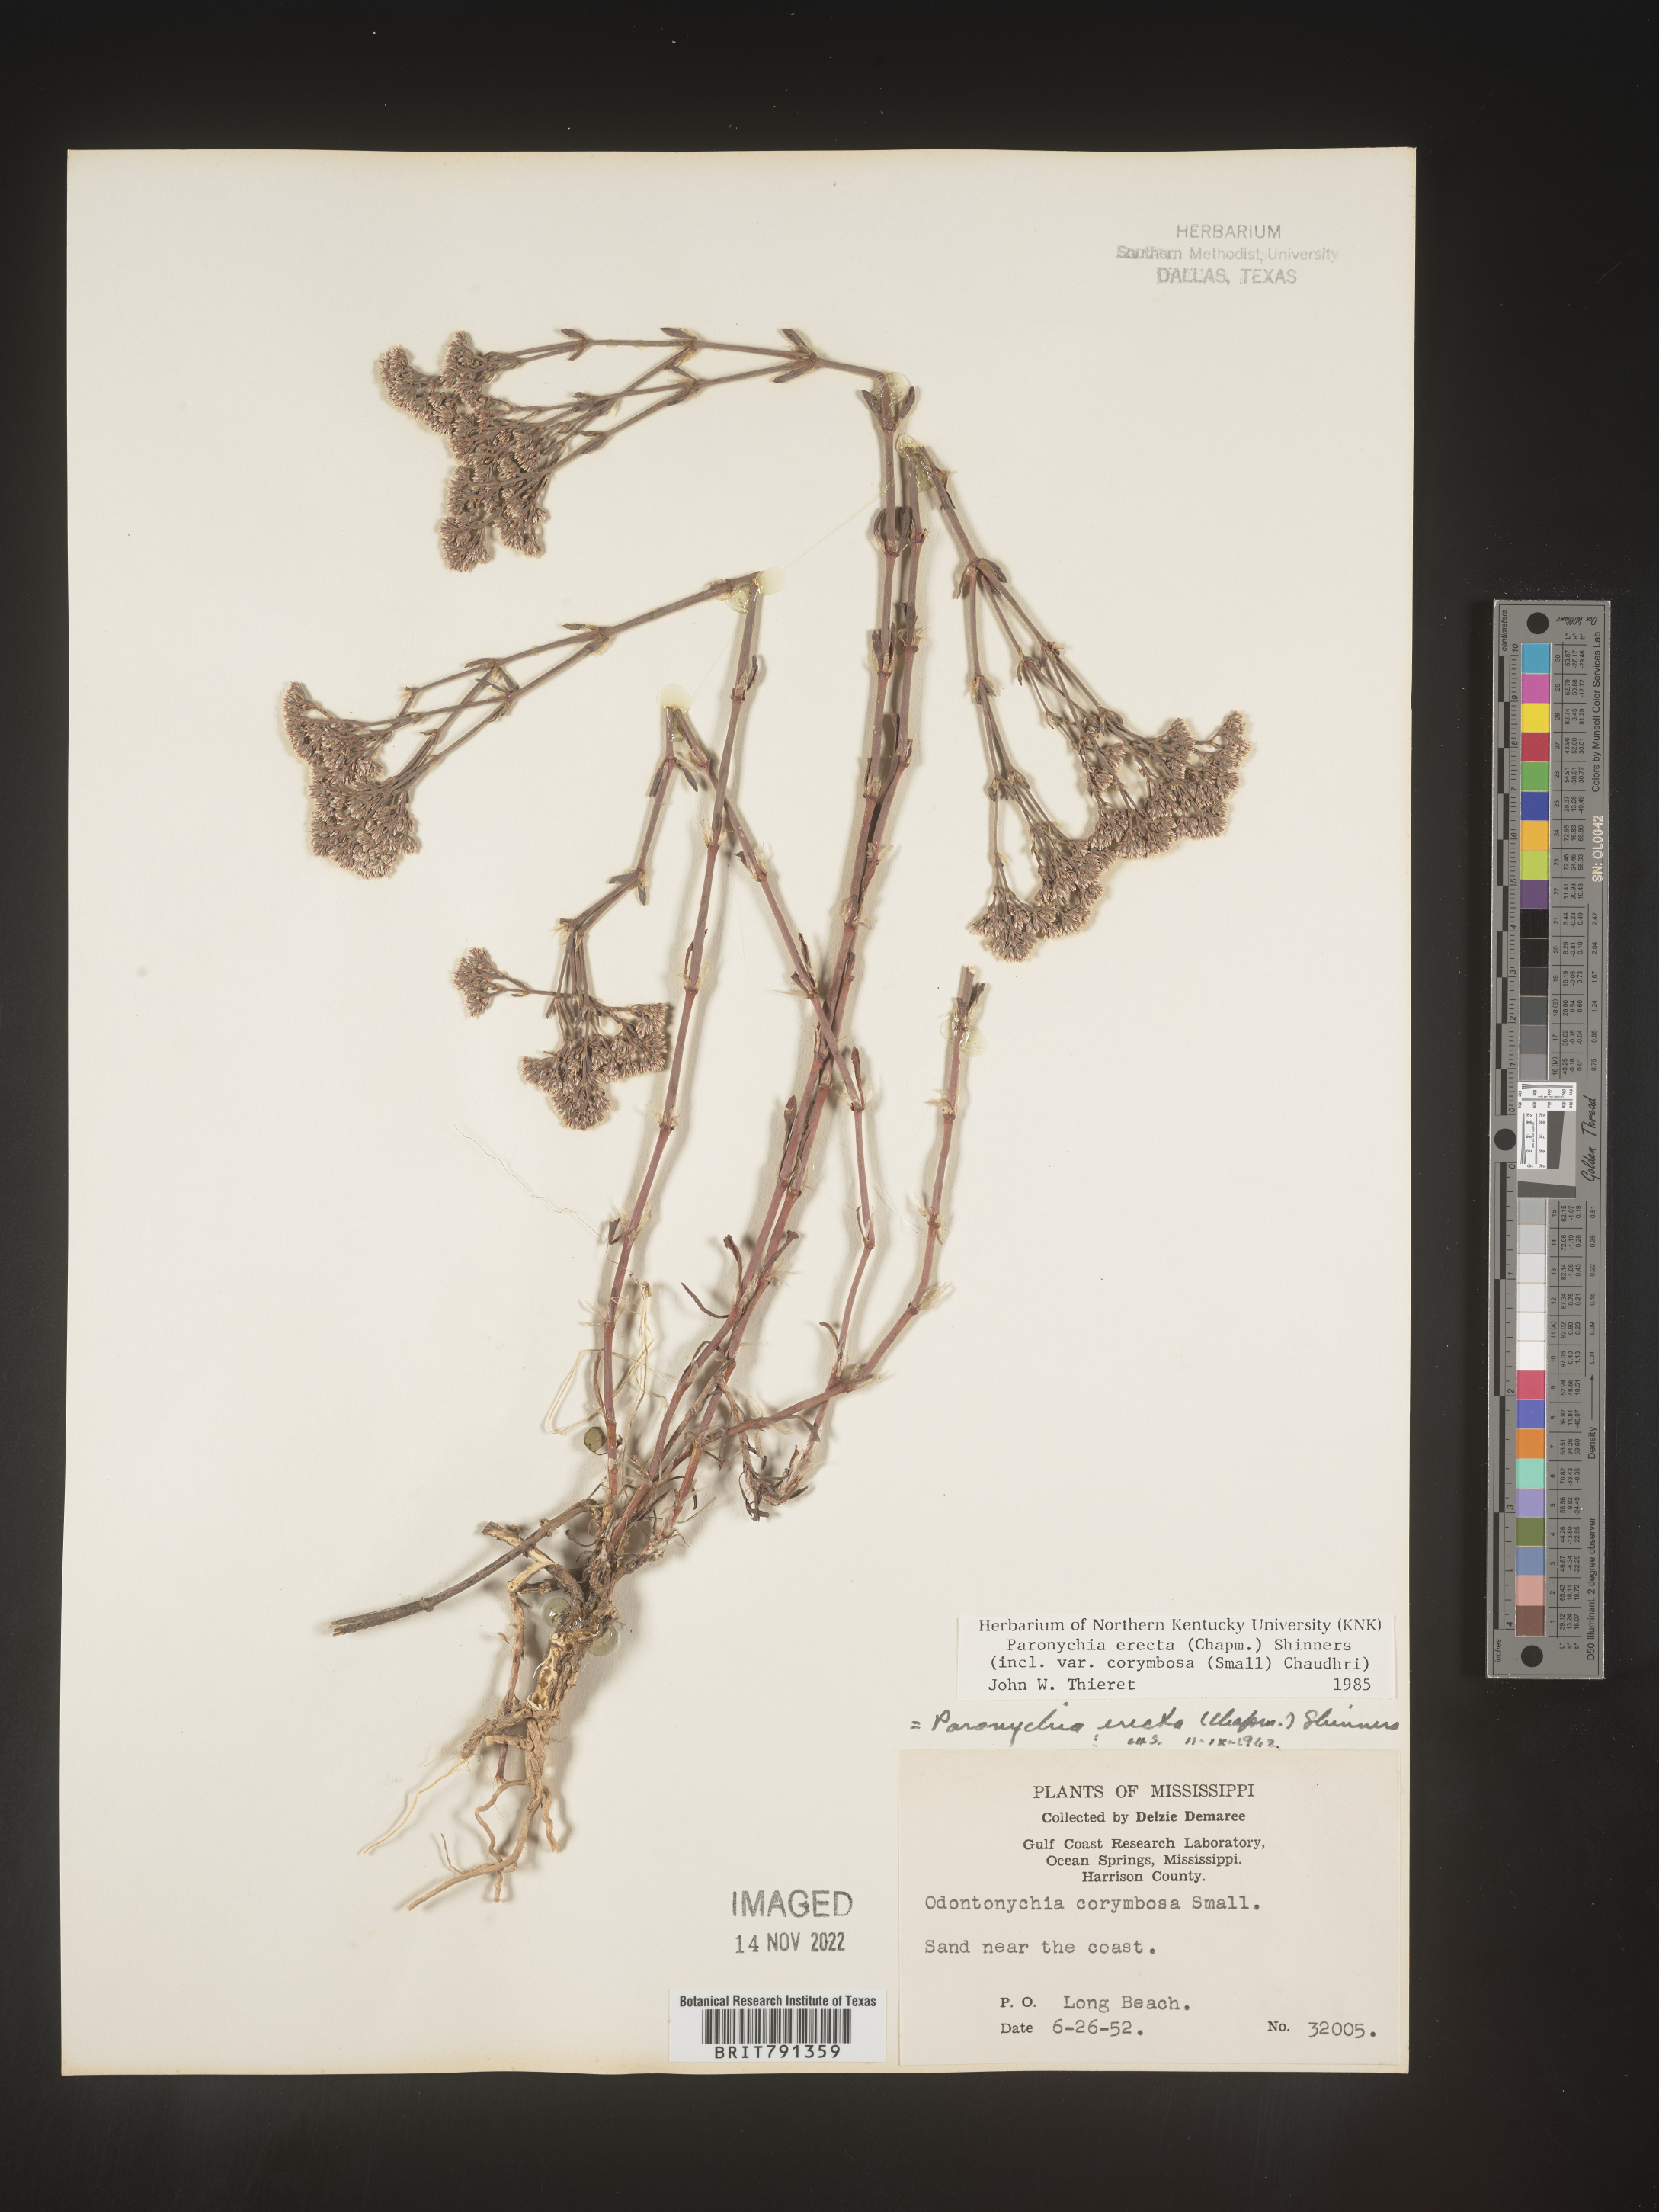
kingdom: Plantae
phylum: Tracheophyta
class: Magnoliopsida
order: Caryophyllales
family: Caryophyllaceae
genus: Paronychia
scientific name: Paronychia erecta
